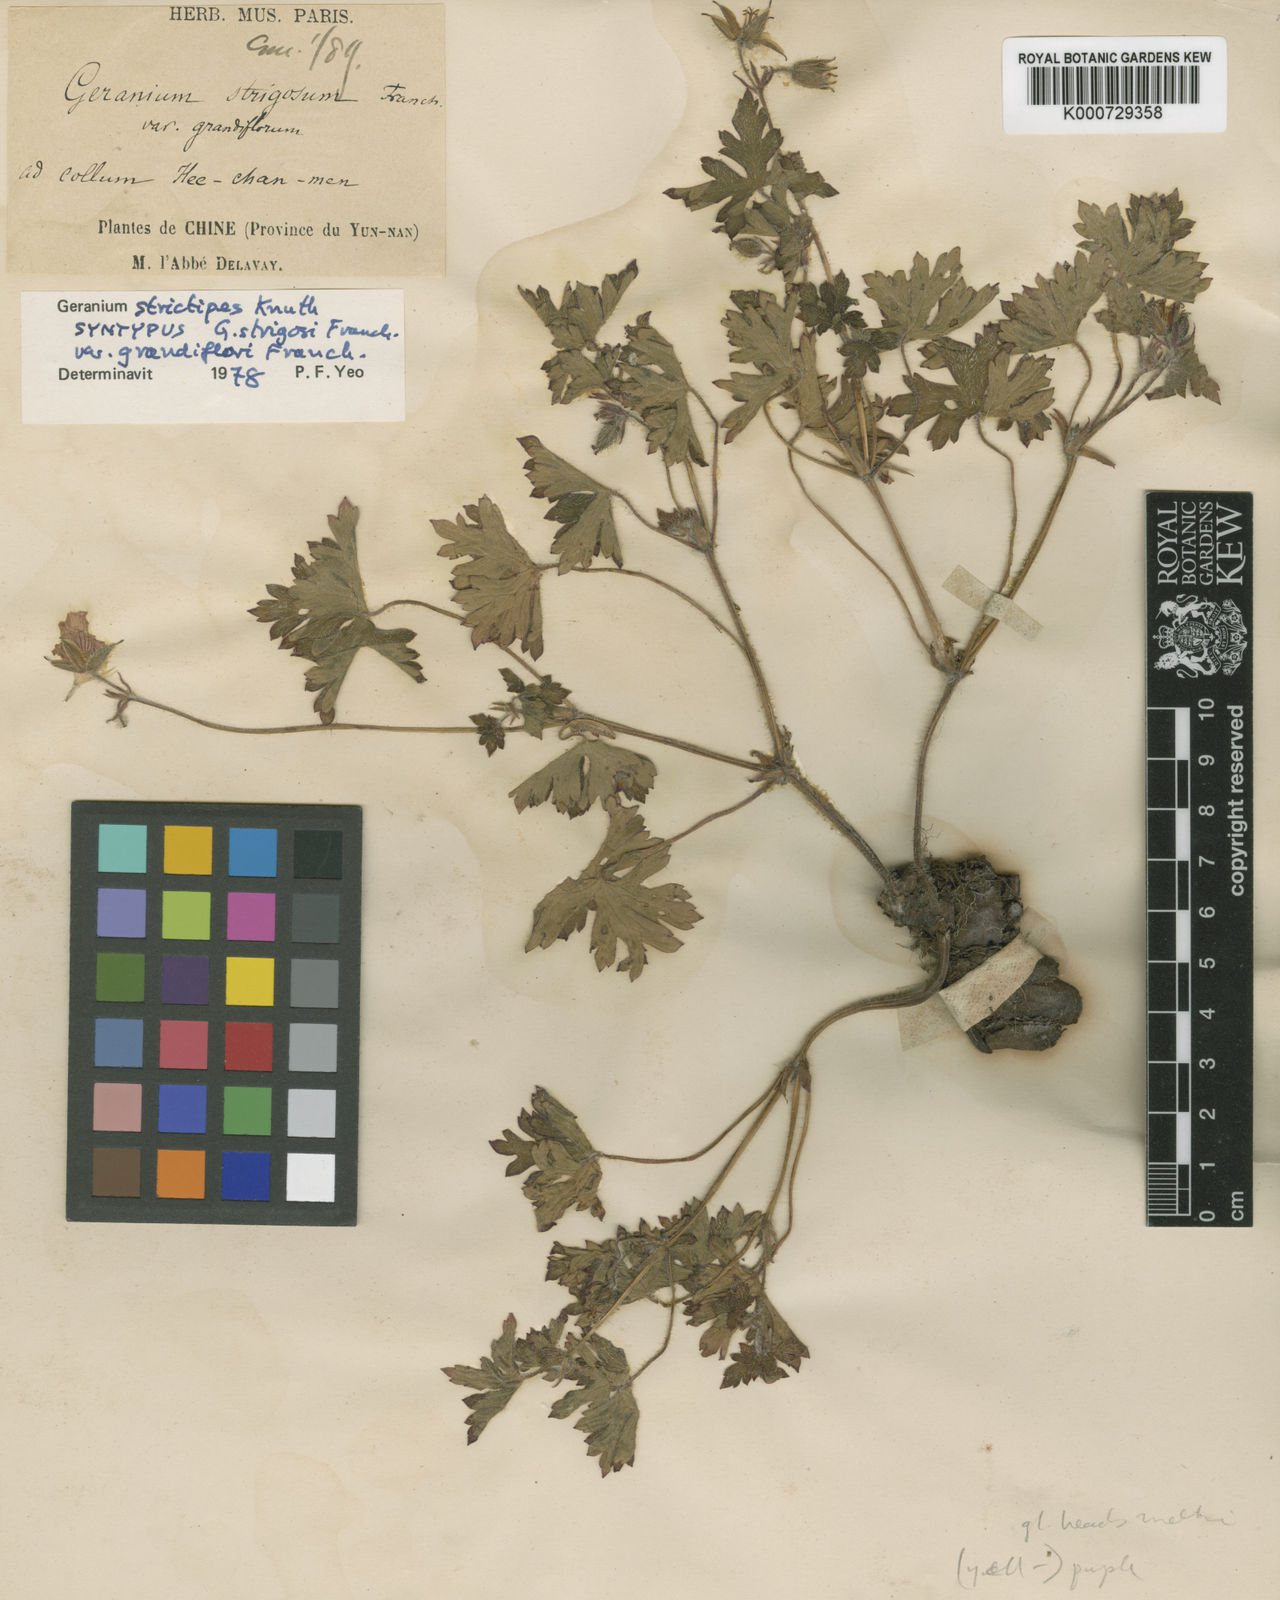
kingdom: Plantae
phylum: Tracheophyta
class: Magnoliopsida
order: Geraniales
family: Geraniaceae
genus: Geranium
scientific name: Geranium strictipes
